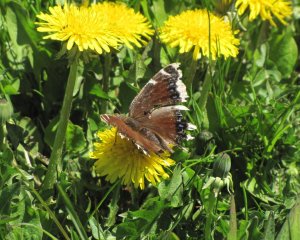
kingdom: Animalia
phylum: Arthropoda
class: Insecta
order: Lepidoptera
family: Nymphalidae
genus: Nymphalis
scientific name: Nymphalis antiopa
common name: Mourning Cloak
